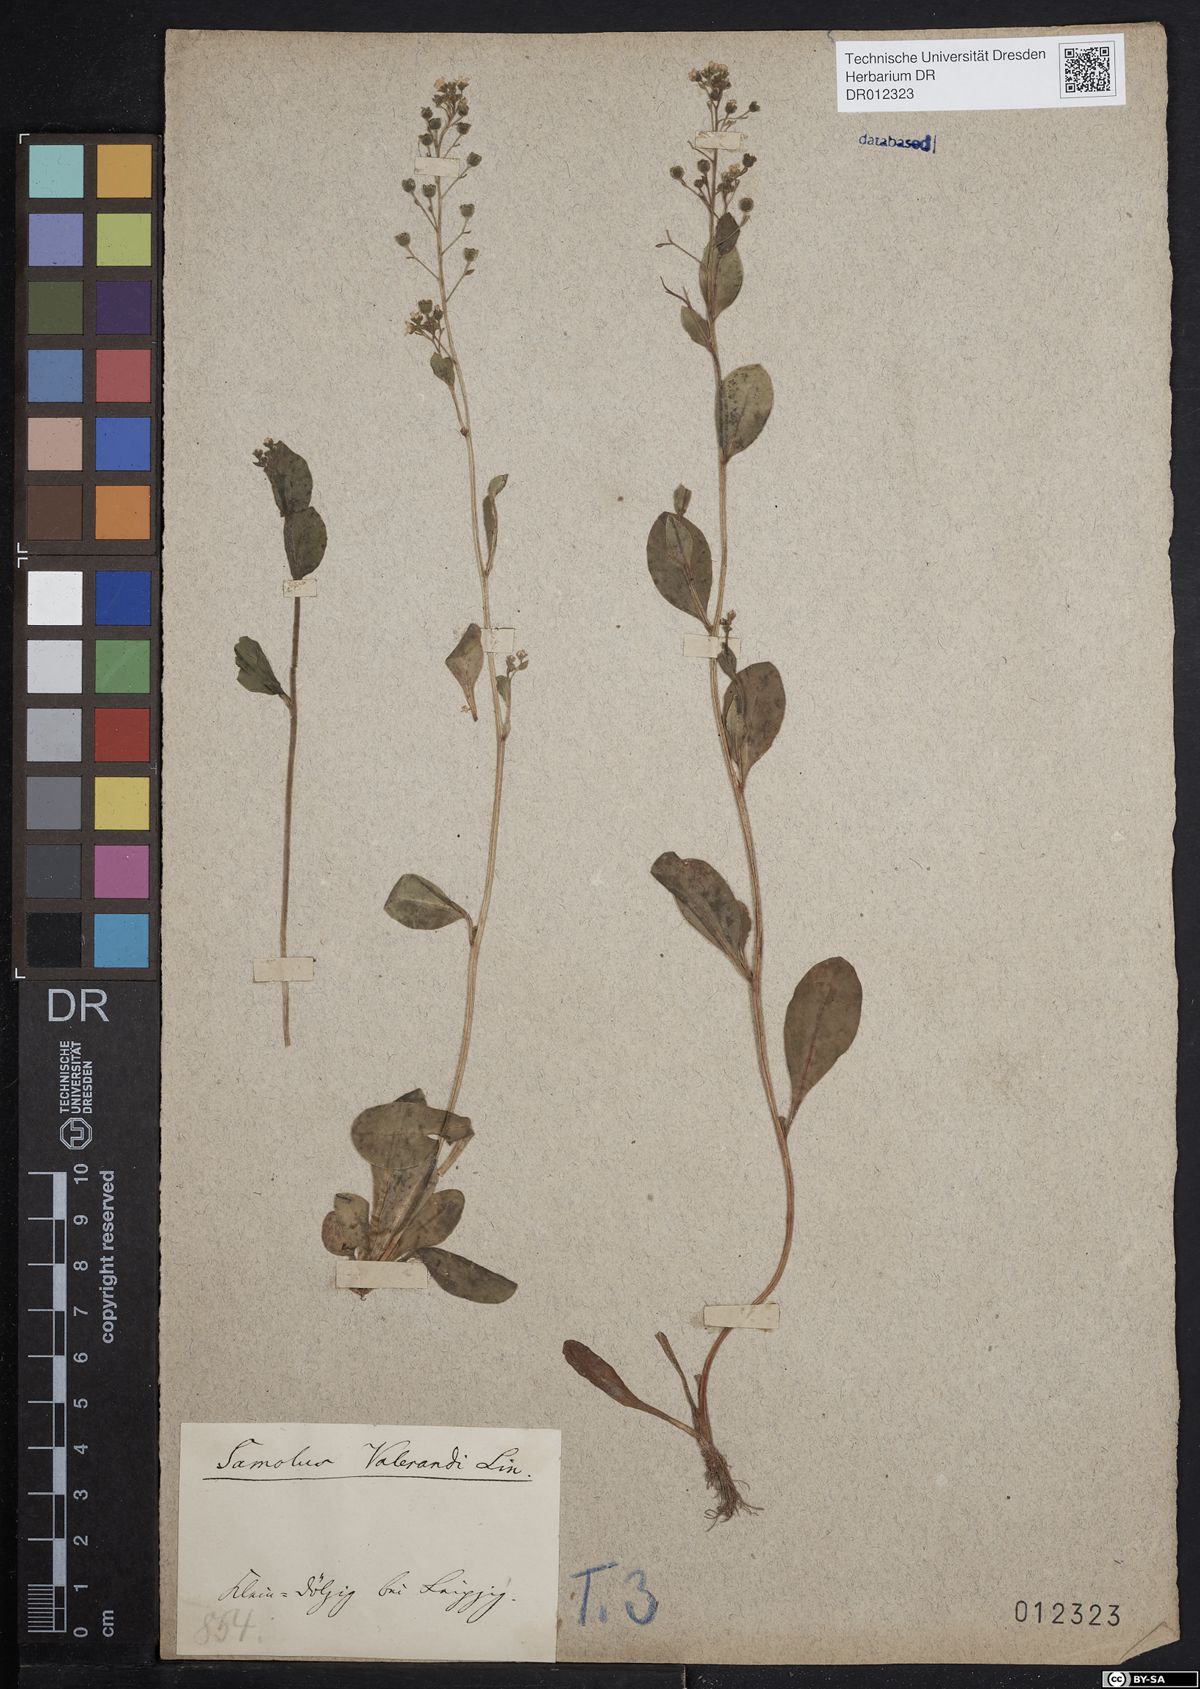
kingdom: Plantae
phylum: Tracheophyta
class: Magnoliopsida
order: Ericales
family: Primulaceae
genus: Samolus
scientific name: Samolus valerandi
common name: Brookweed
